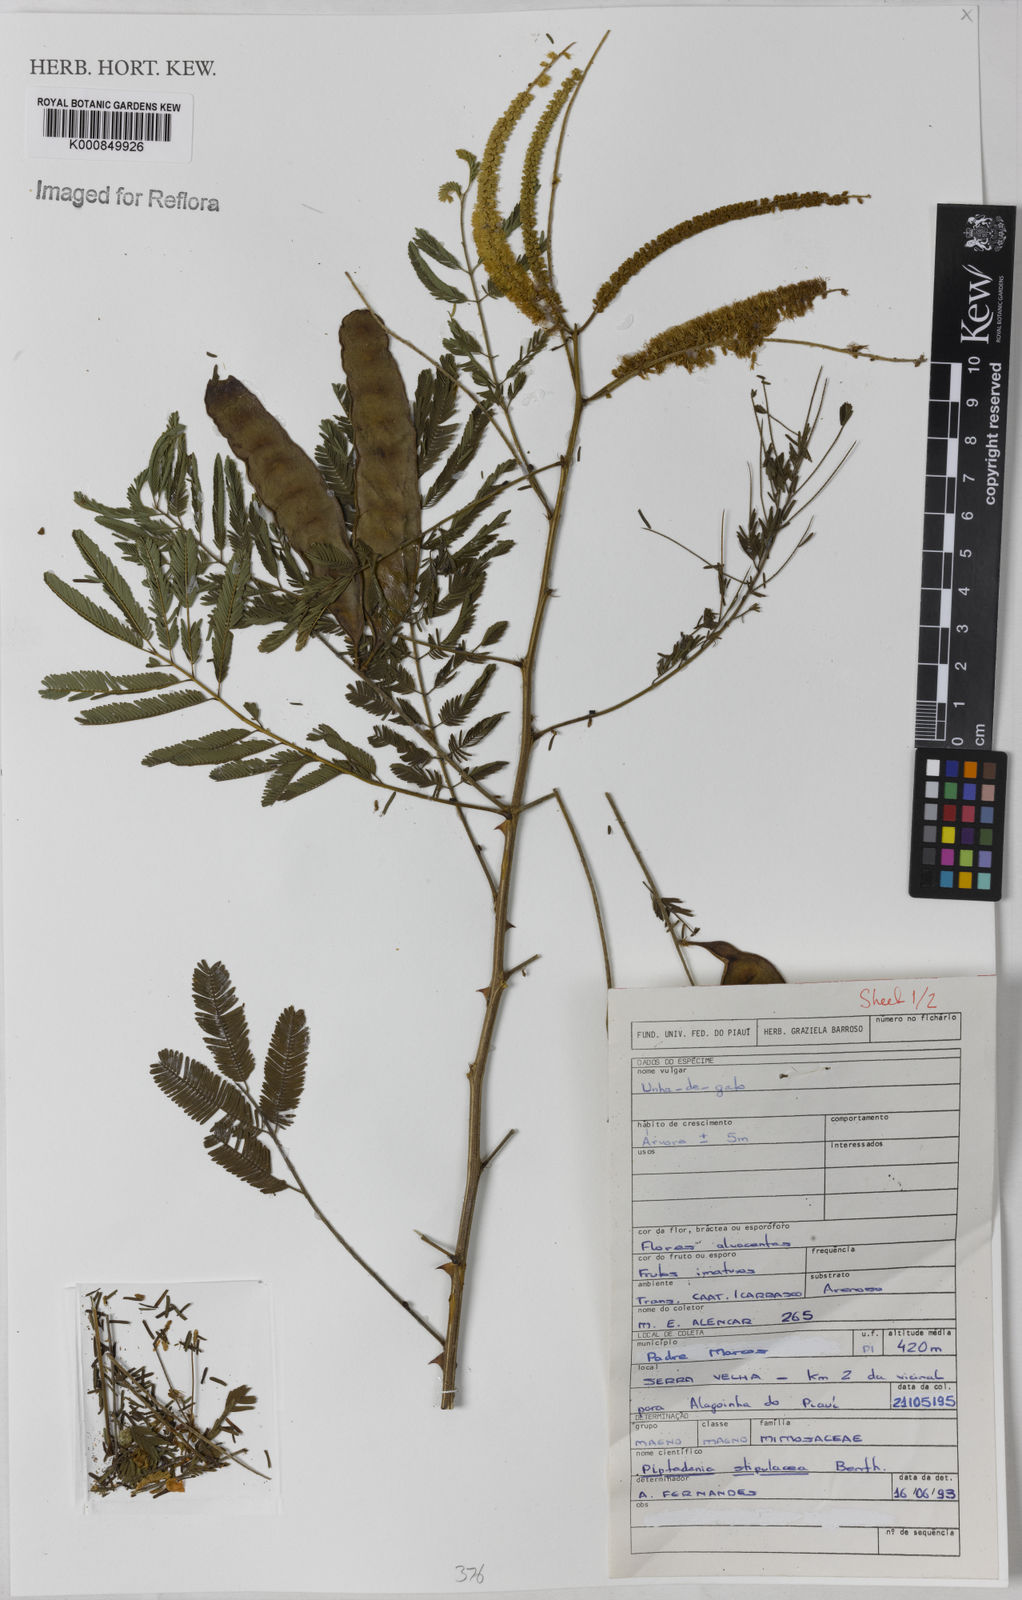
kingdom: Plantae
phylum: Tracheophyta
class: Magnoliopsida
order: Fabales
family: Fabaceae
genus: Piptadenia
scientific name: Piptadenia retusa
